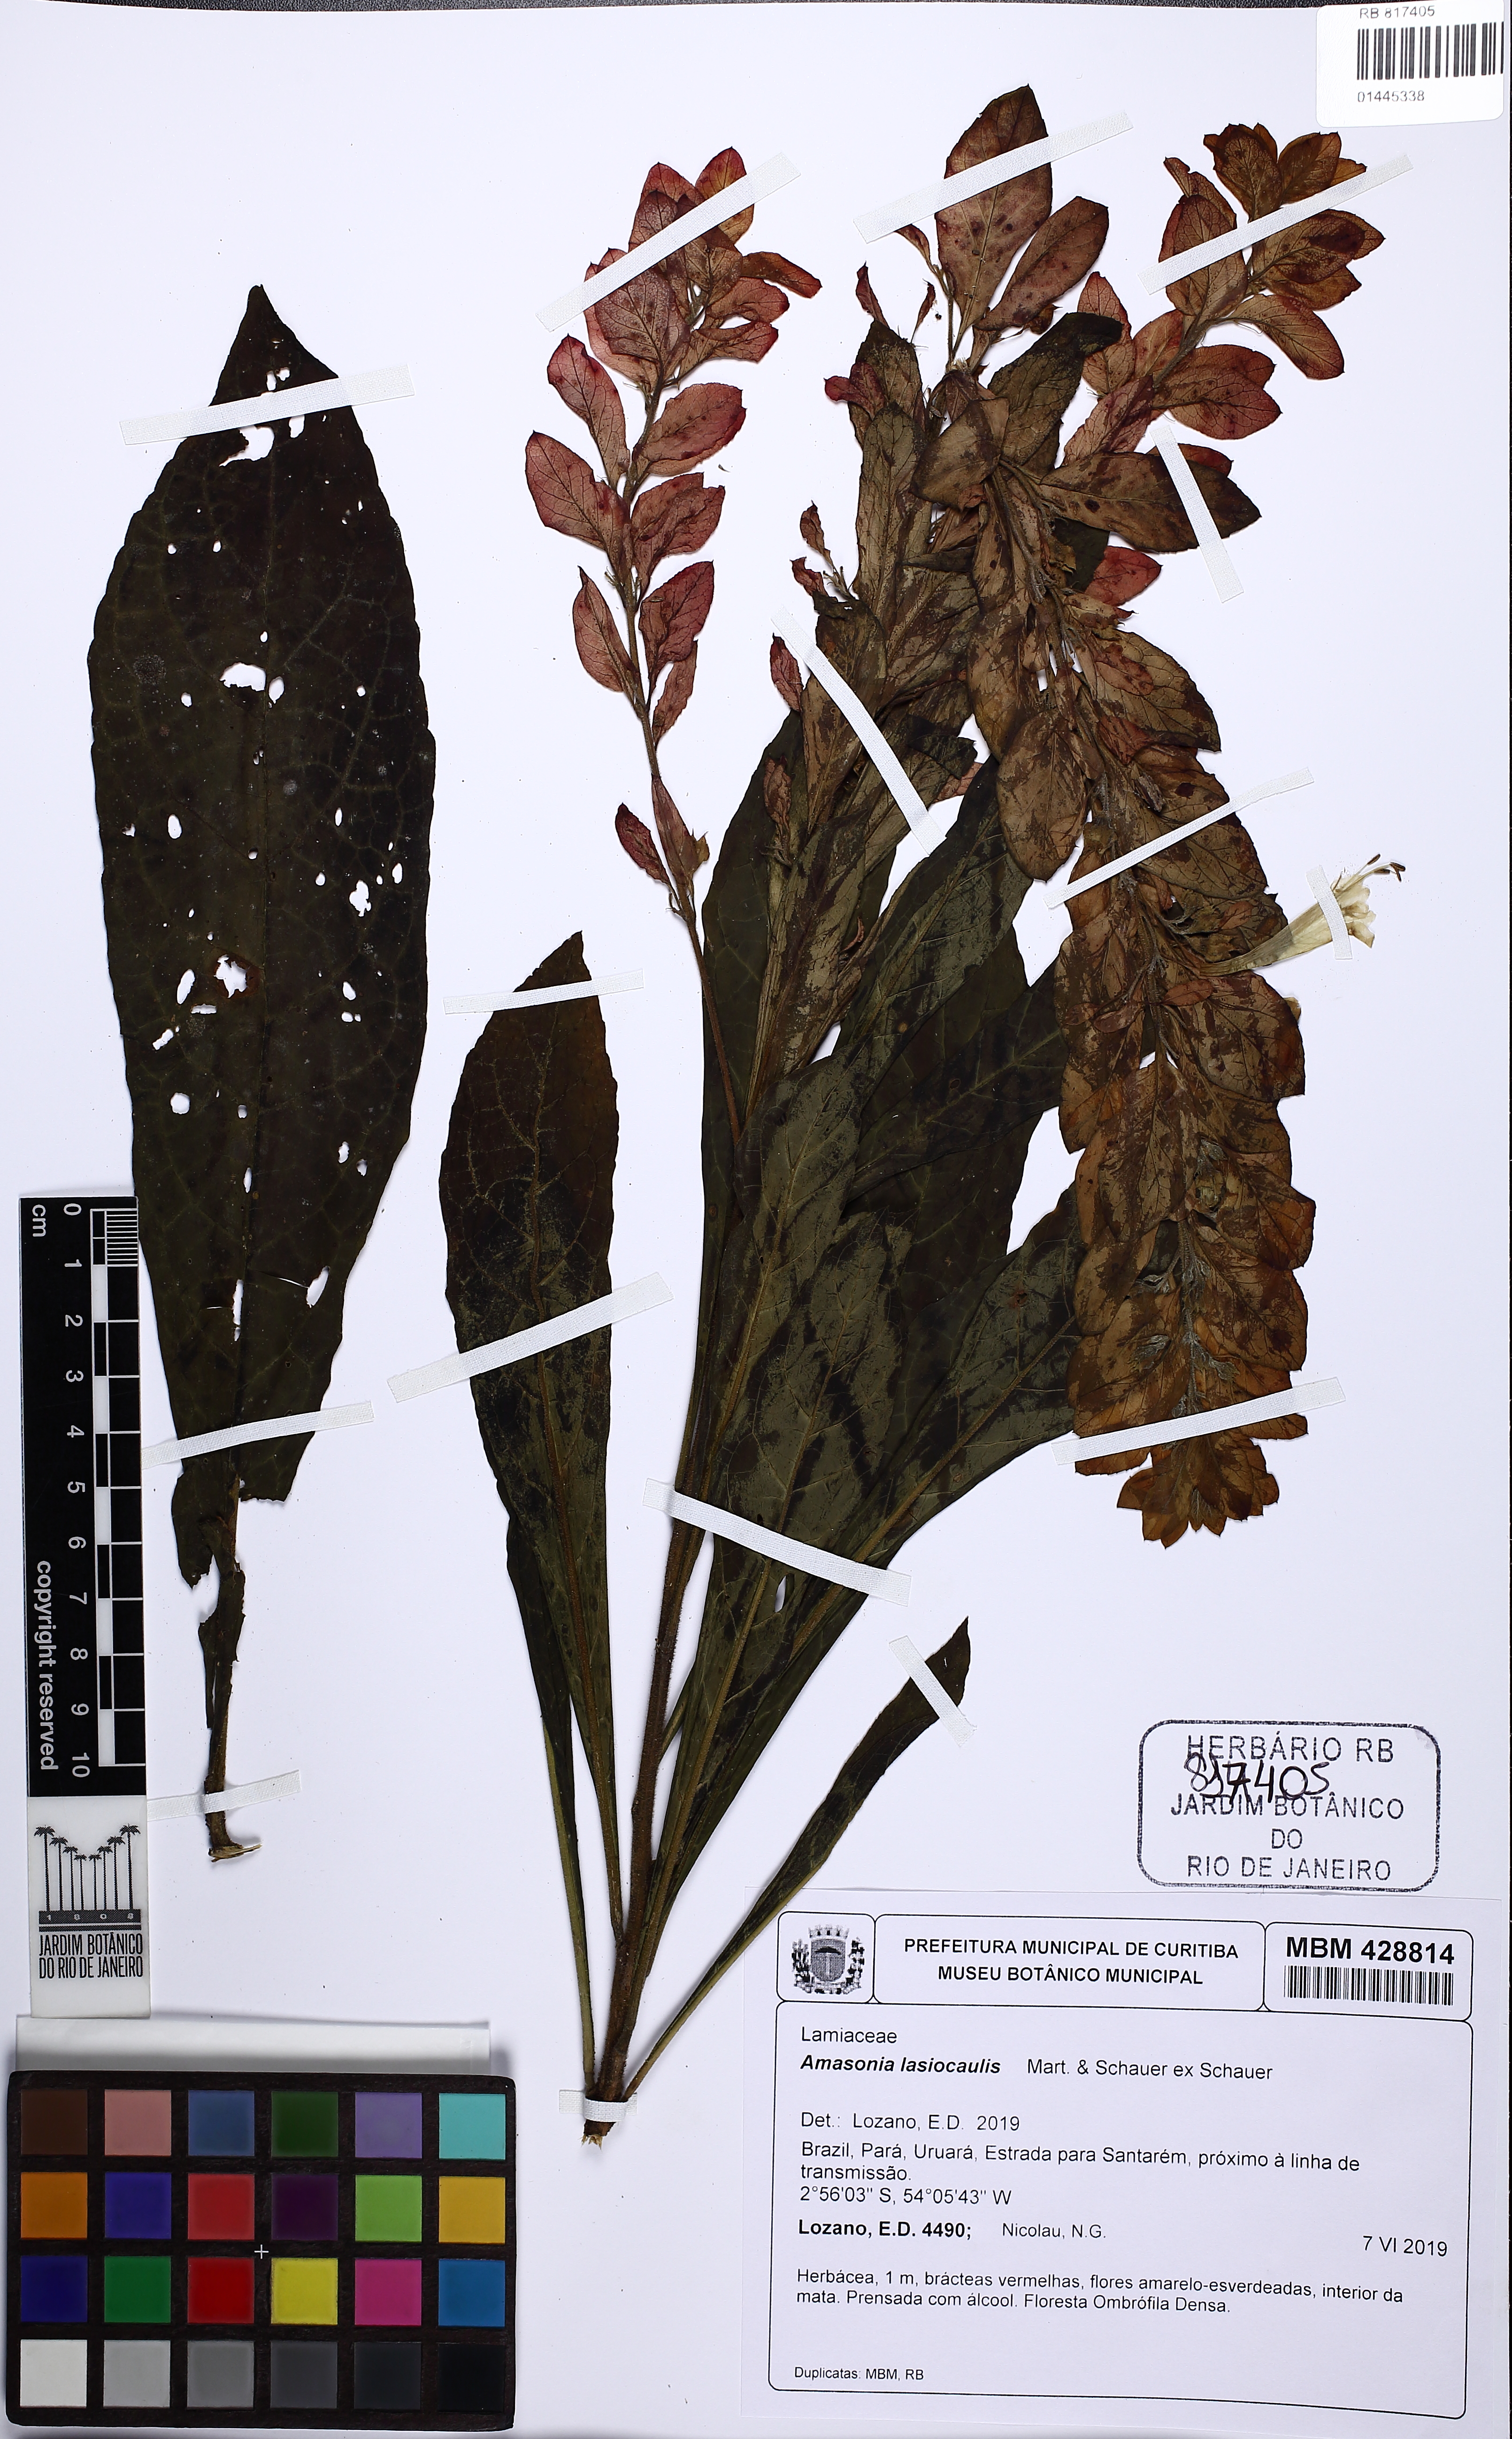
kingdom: Plantae
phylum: Tracheophyta
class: Magnoliopsida
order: Lamiales
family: Lamiaceae
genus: Amasonia
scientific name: Amasonia lasiocaulos
